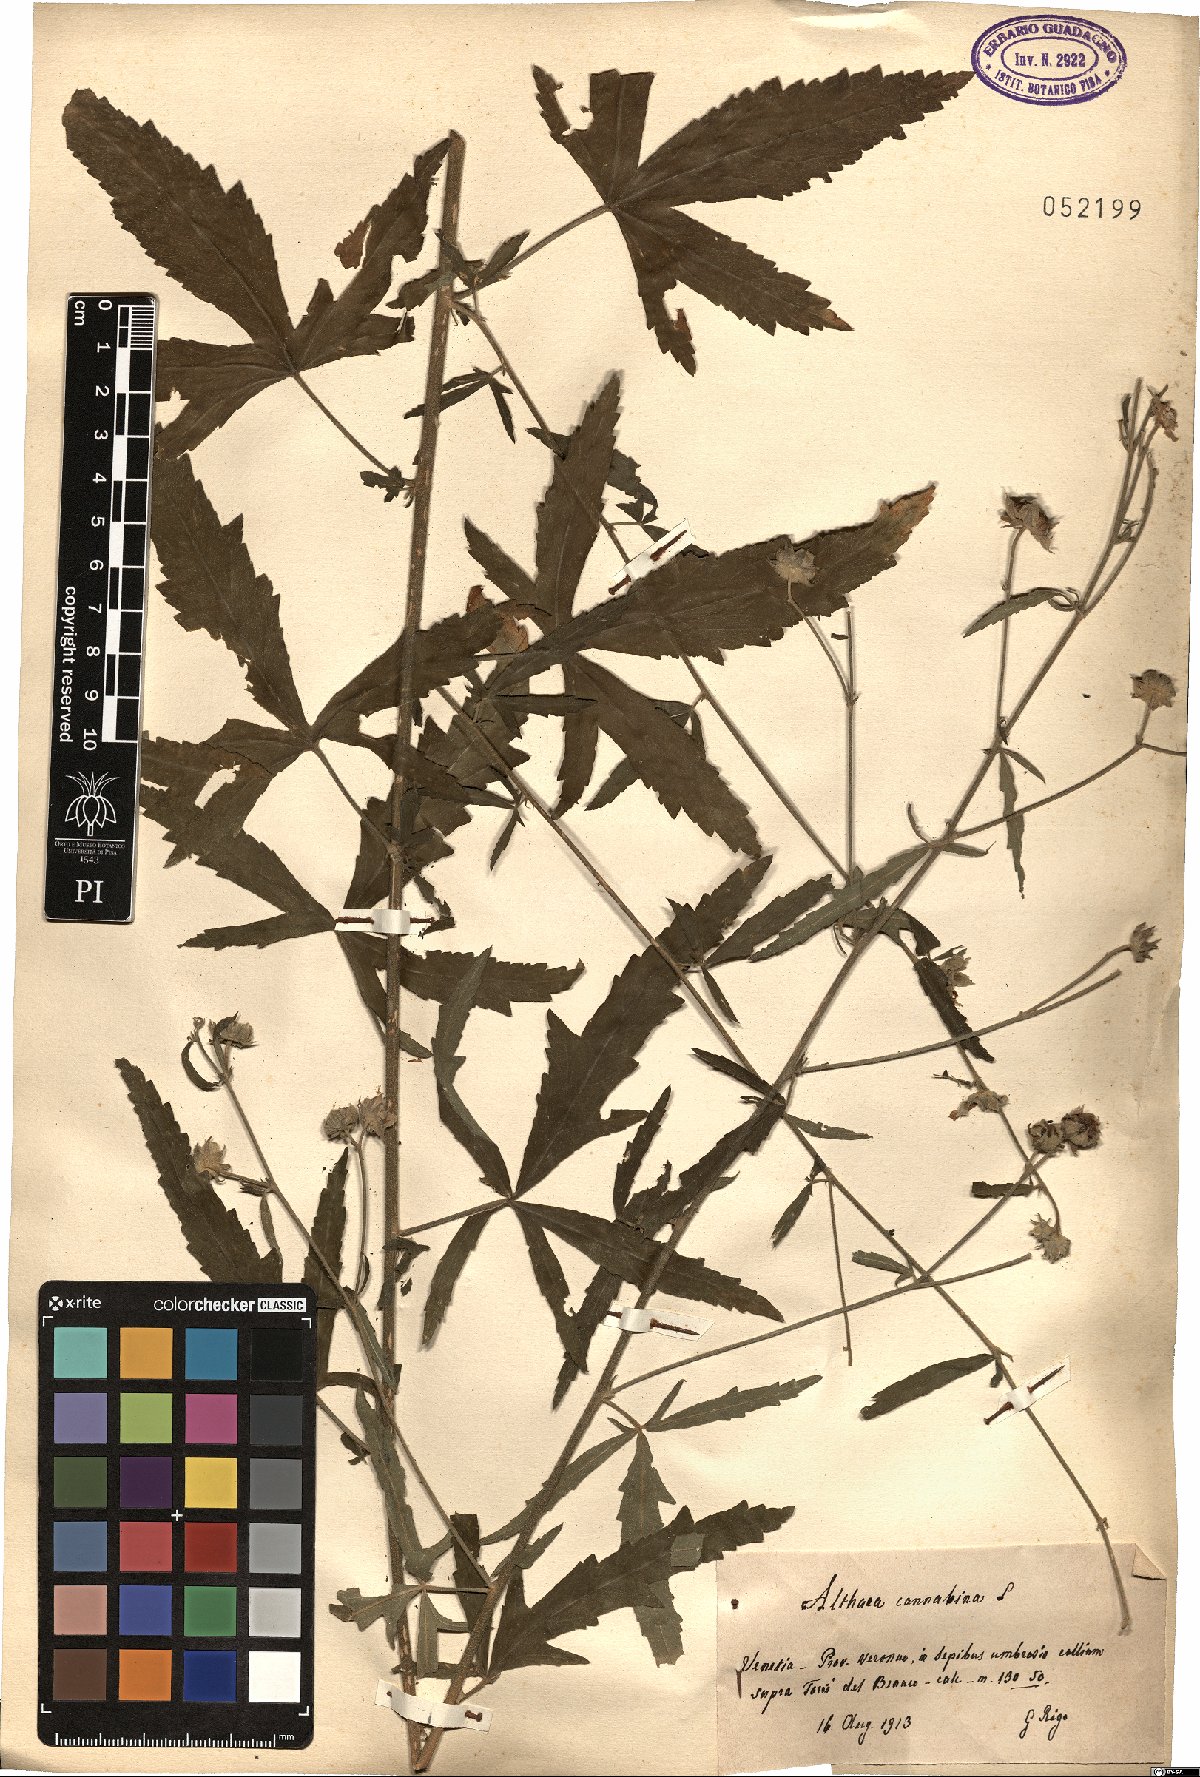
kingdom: Plantae
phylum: Tracheophyta
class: Magnoliopsida
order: Malvales
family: Malvaceae
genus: Althaea
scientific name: Althaea cannabina
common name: Palm-leaf marshmallow
